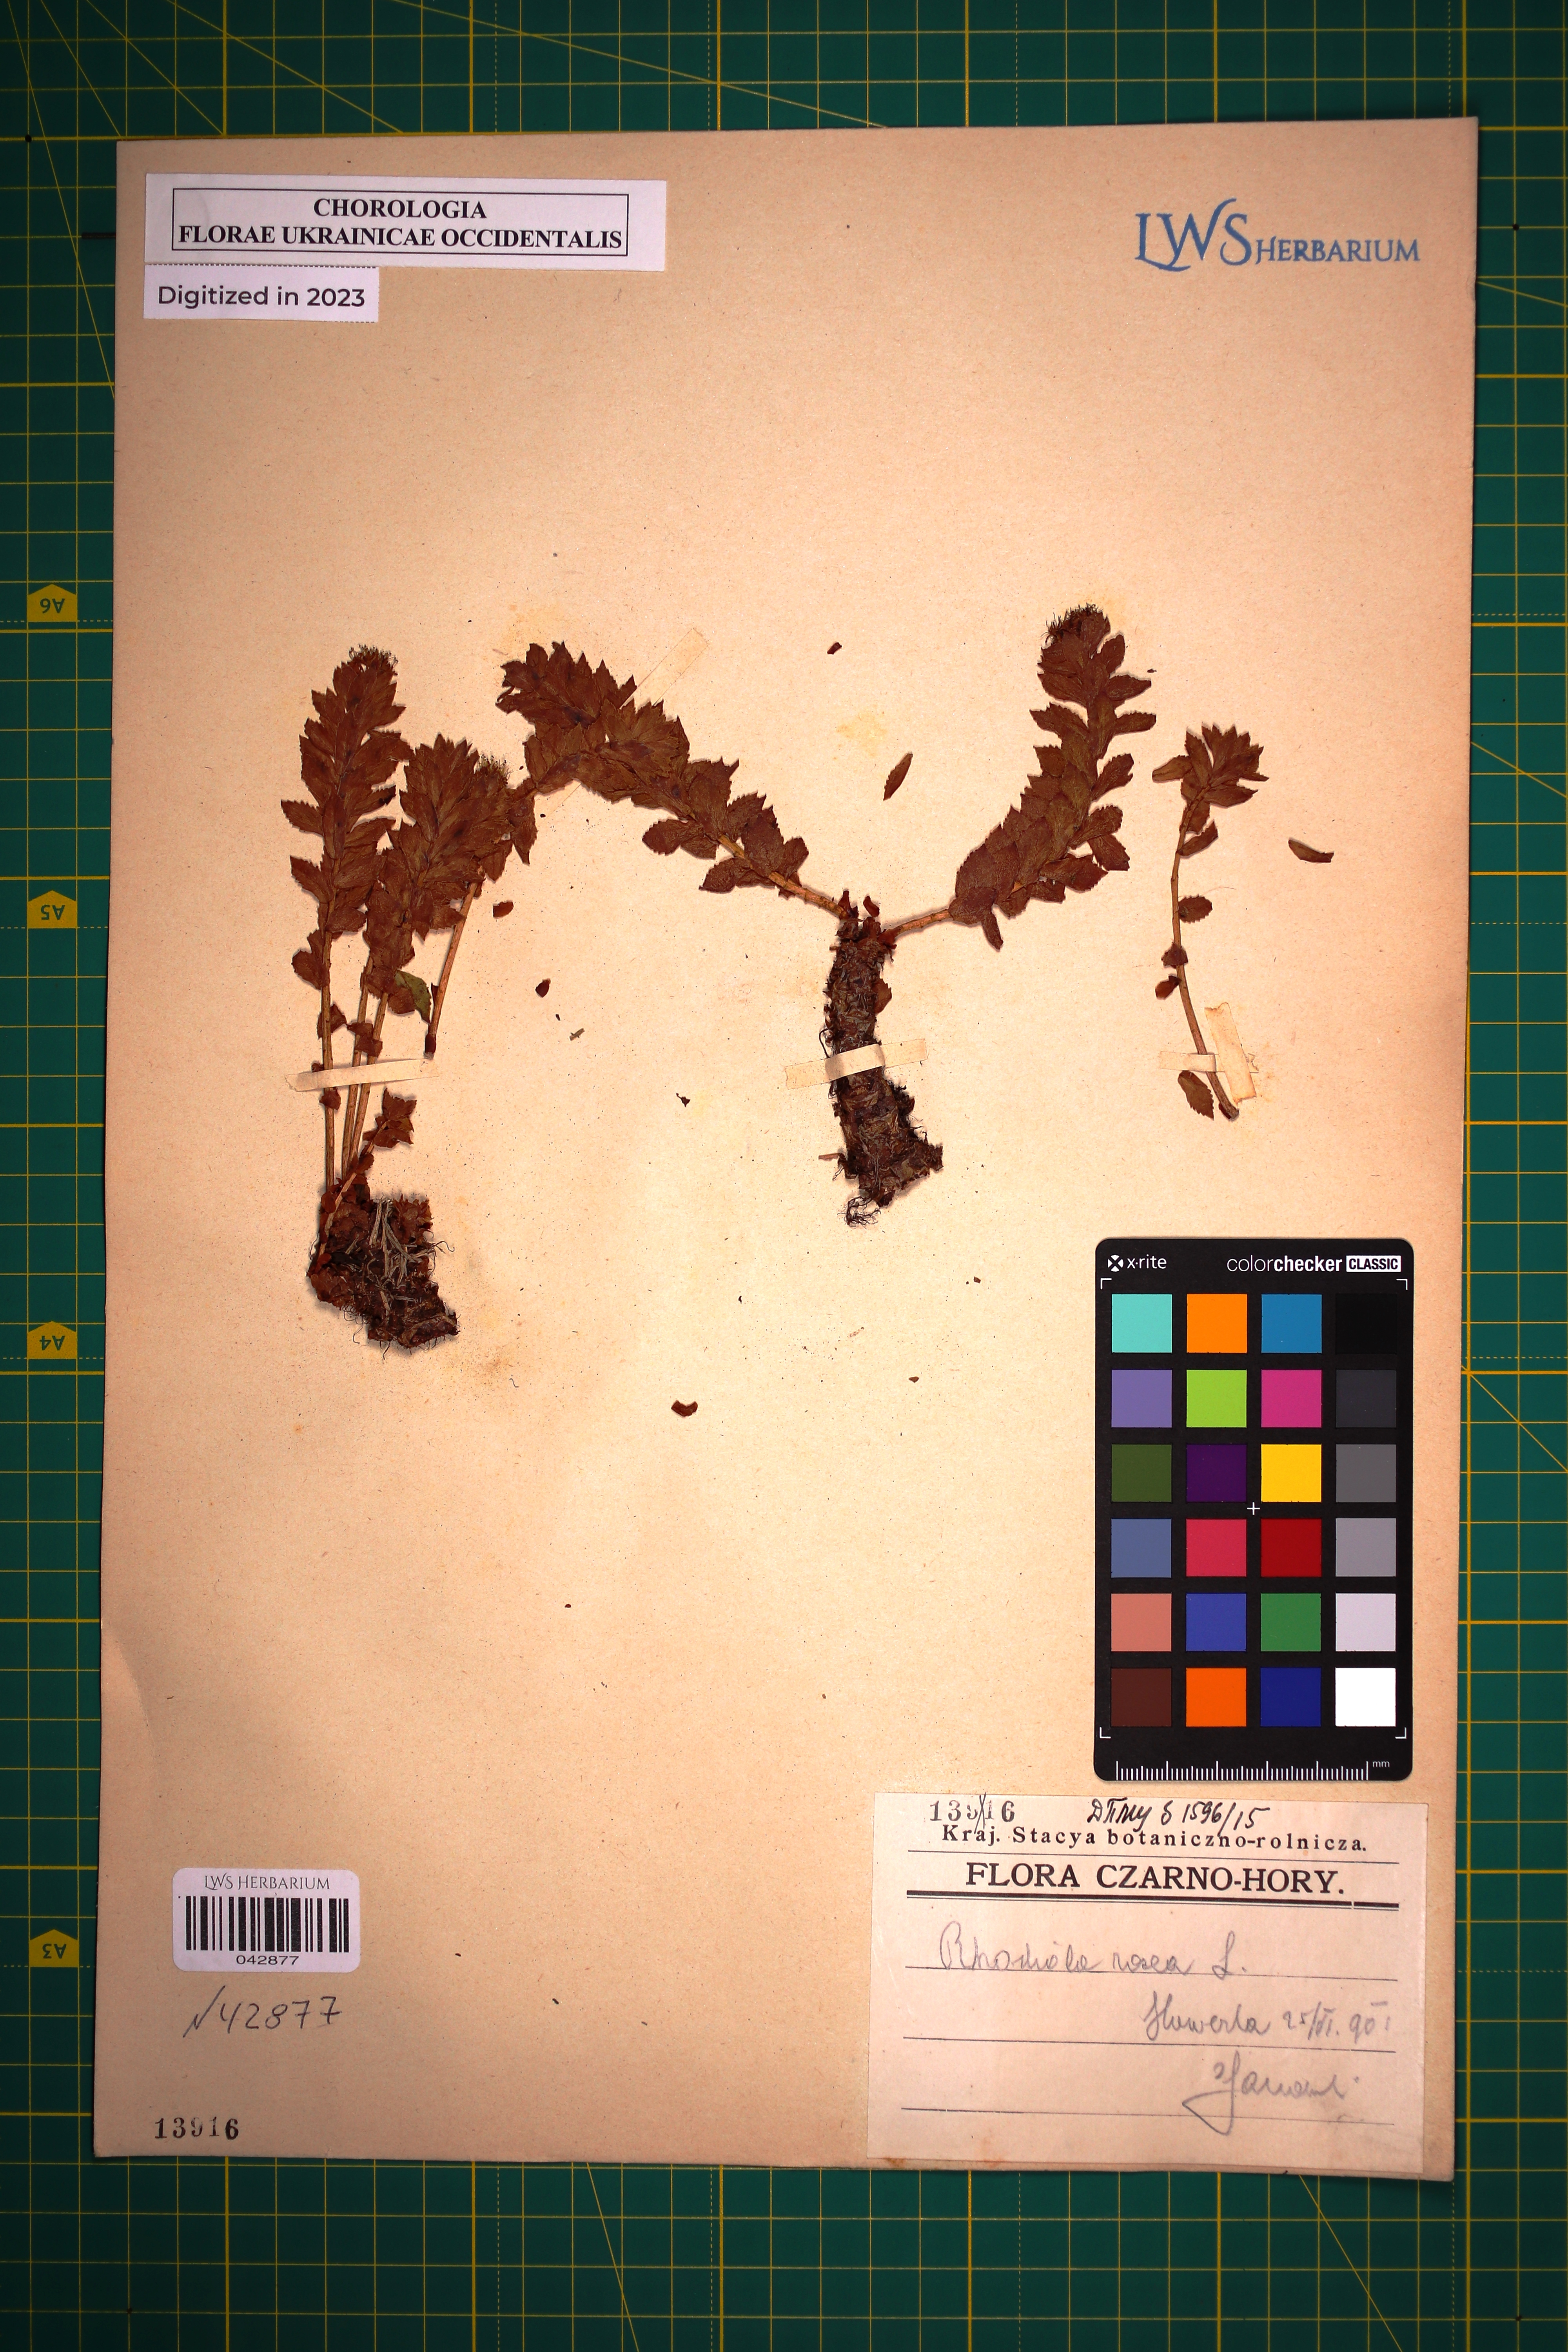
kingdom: Plantae
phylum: Tracheophyta
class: Magnoliopsida
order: Saxifragales
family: Crassulaceae
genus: Rhodiola
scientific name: Rhodiola rosea
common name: Roseroot
